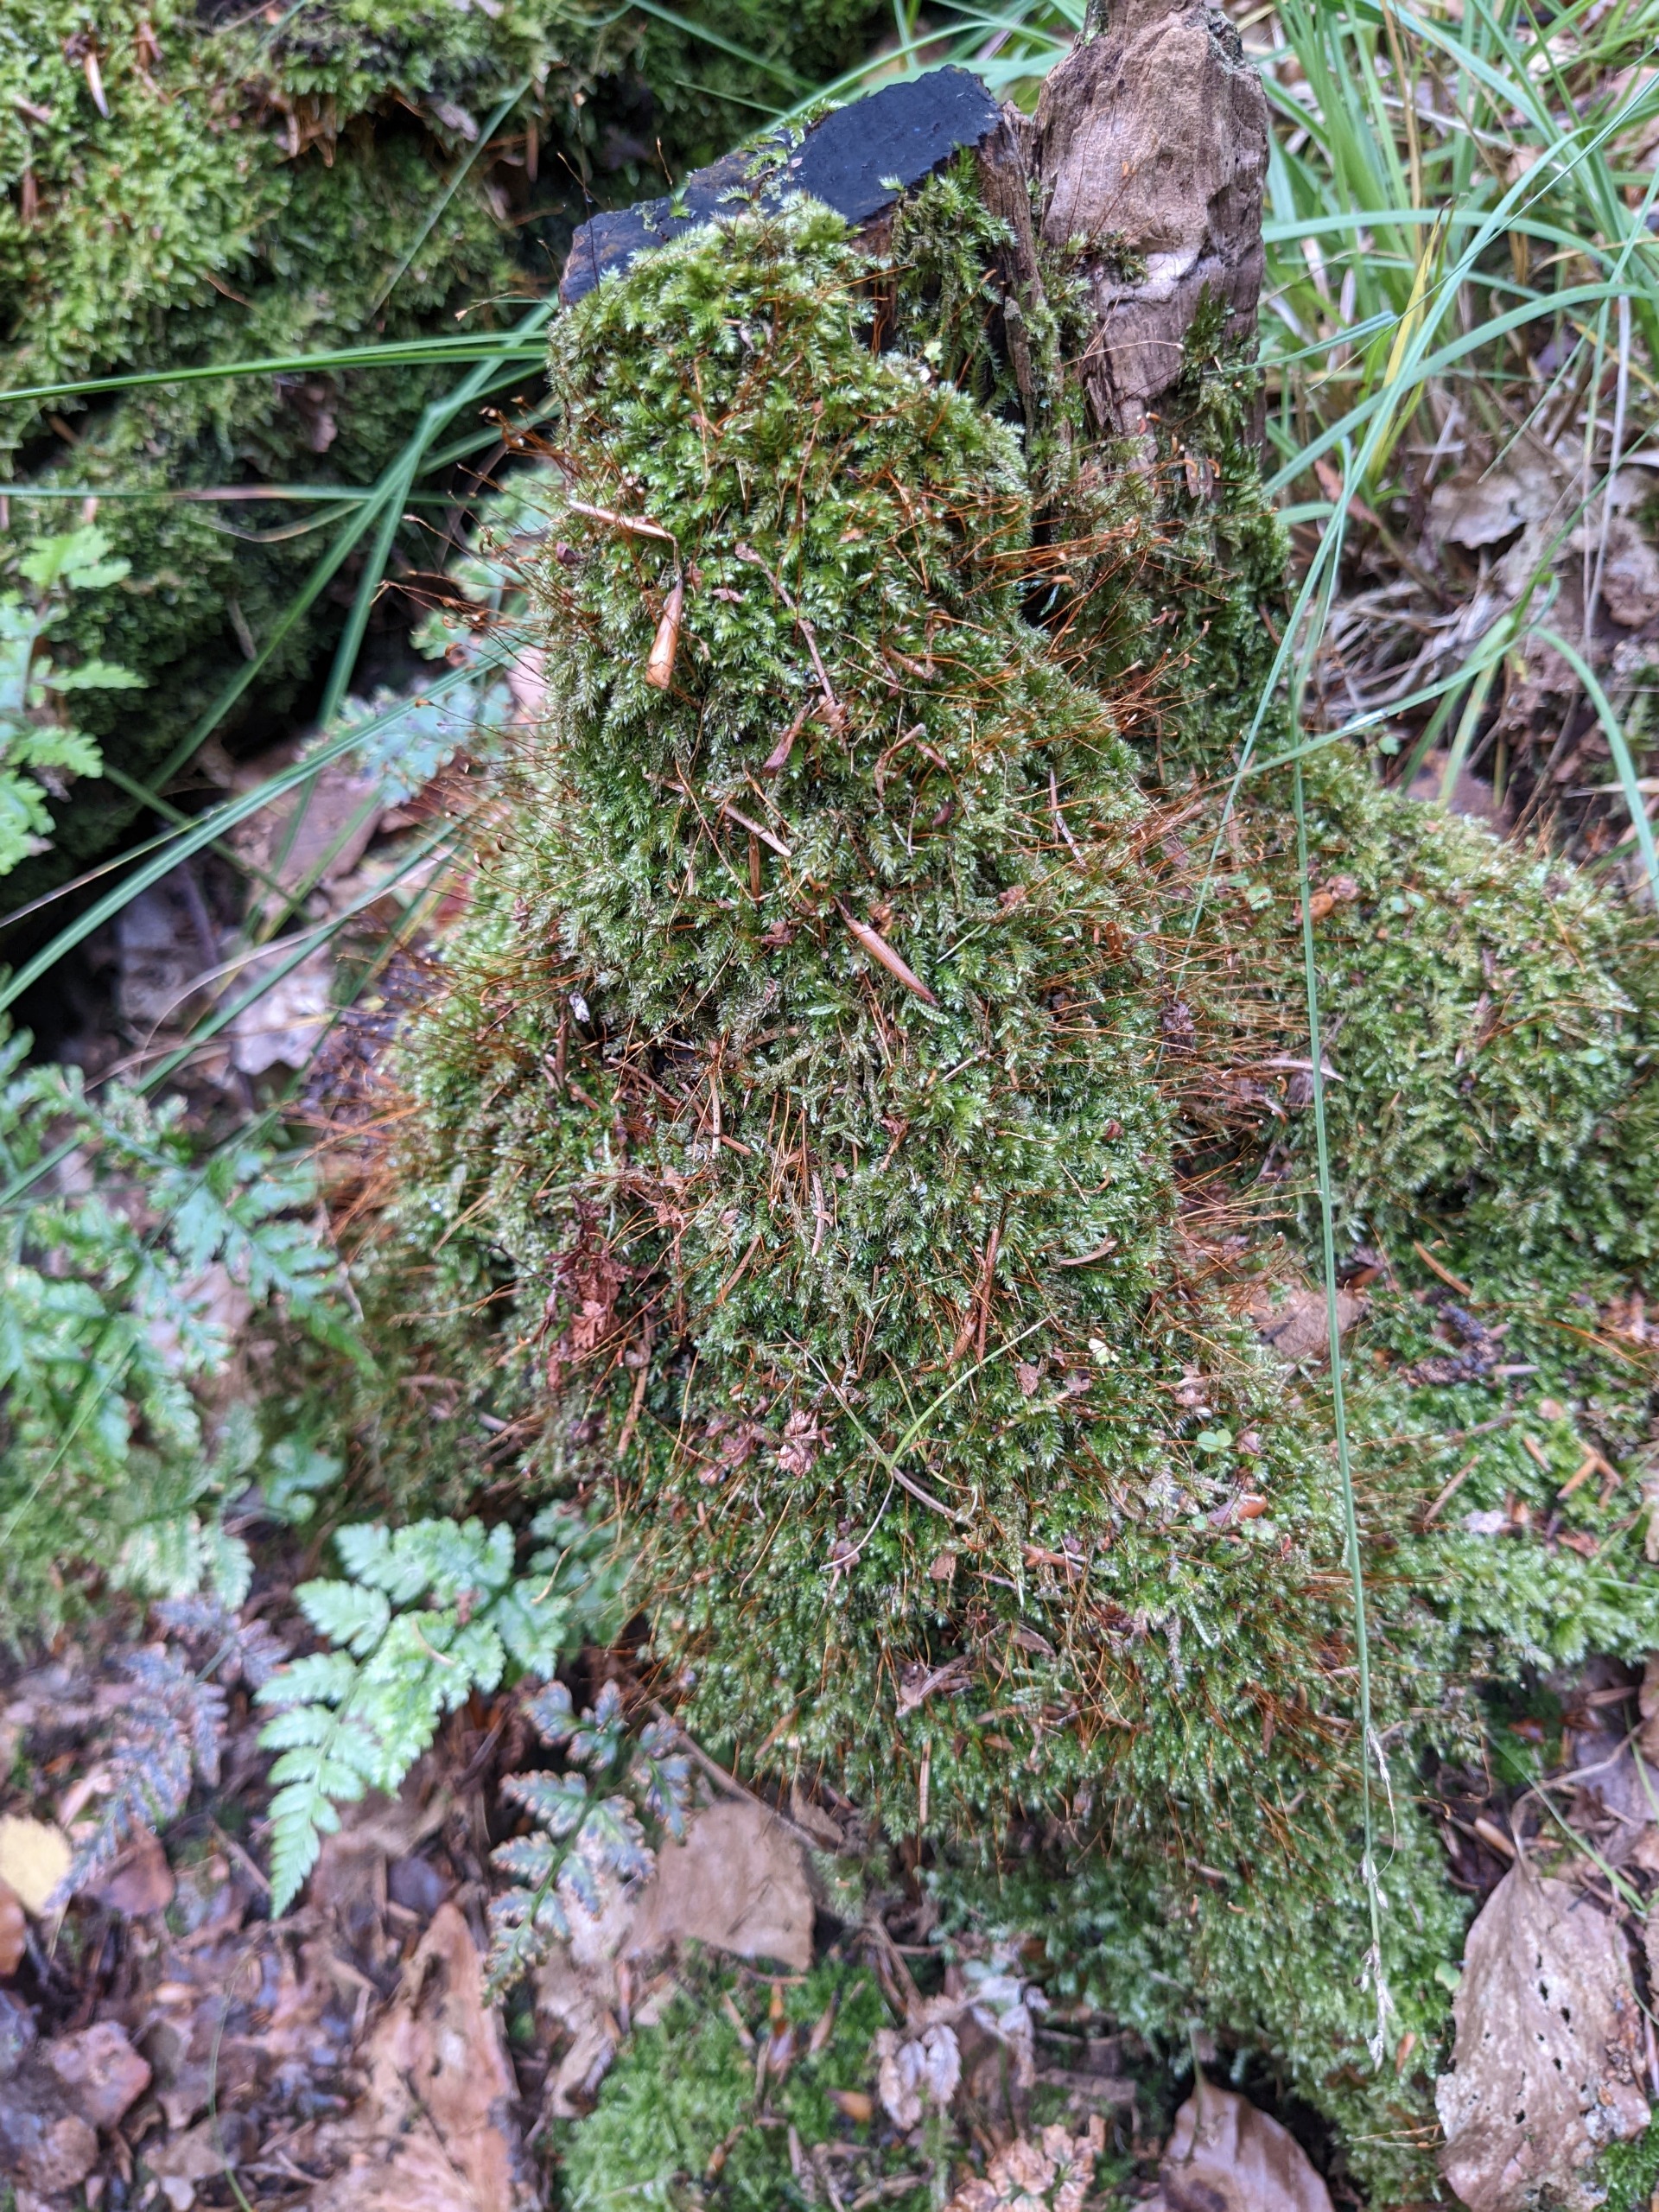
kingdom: Plantae
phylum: Bryophyta
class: Bryopsida
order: Hypnales
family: Plagiotheciaceae
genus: Herzogiella
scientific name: Herzogiella seligeri
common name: Stub-pølsekapsel
